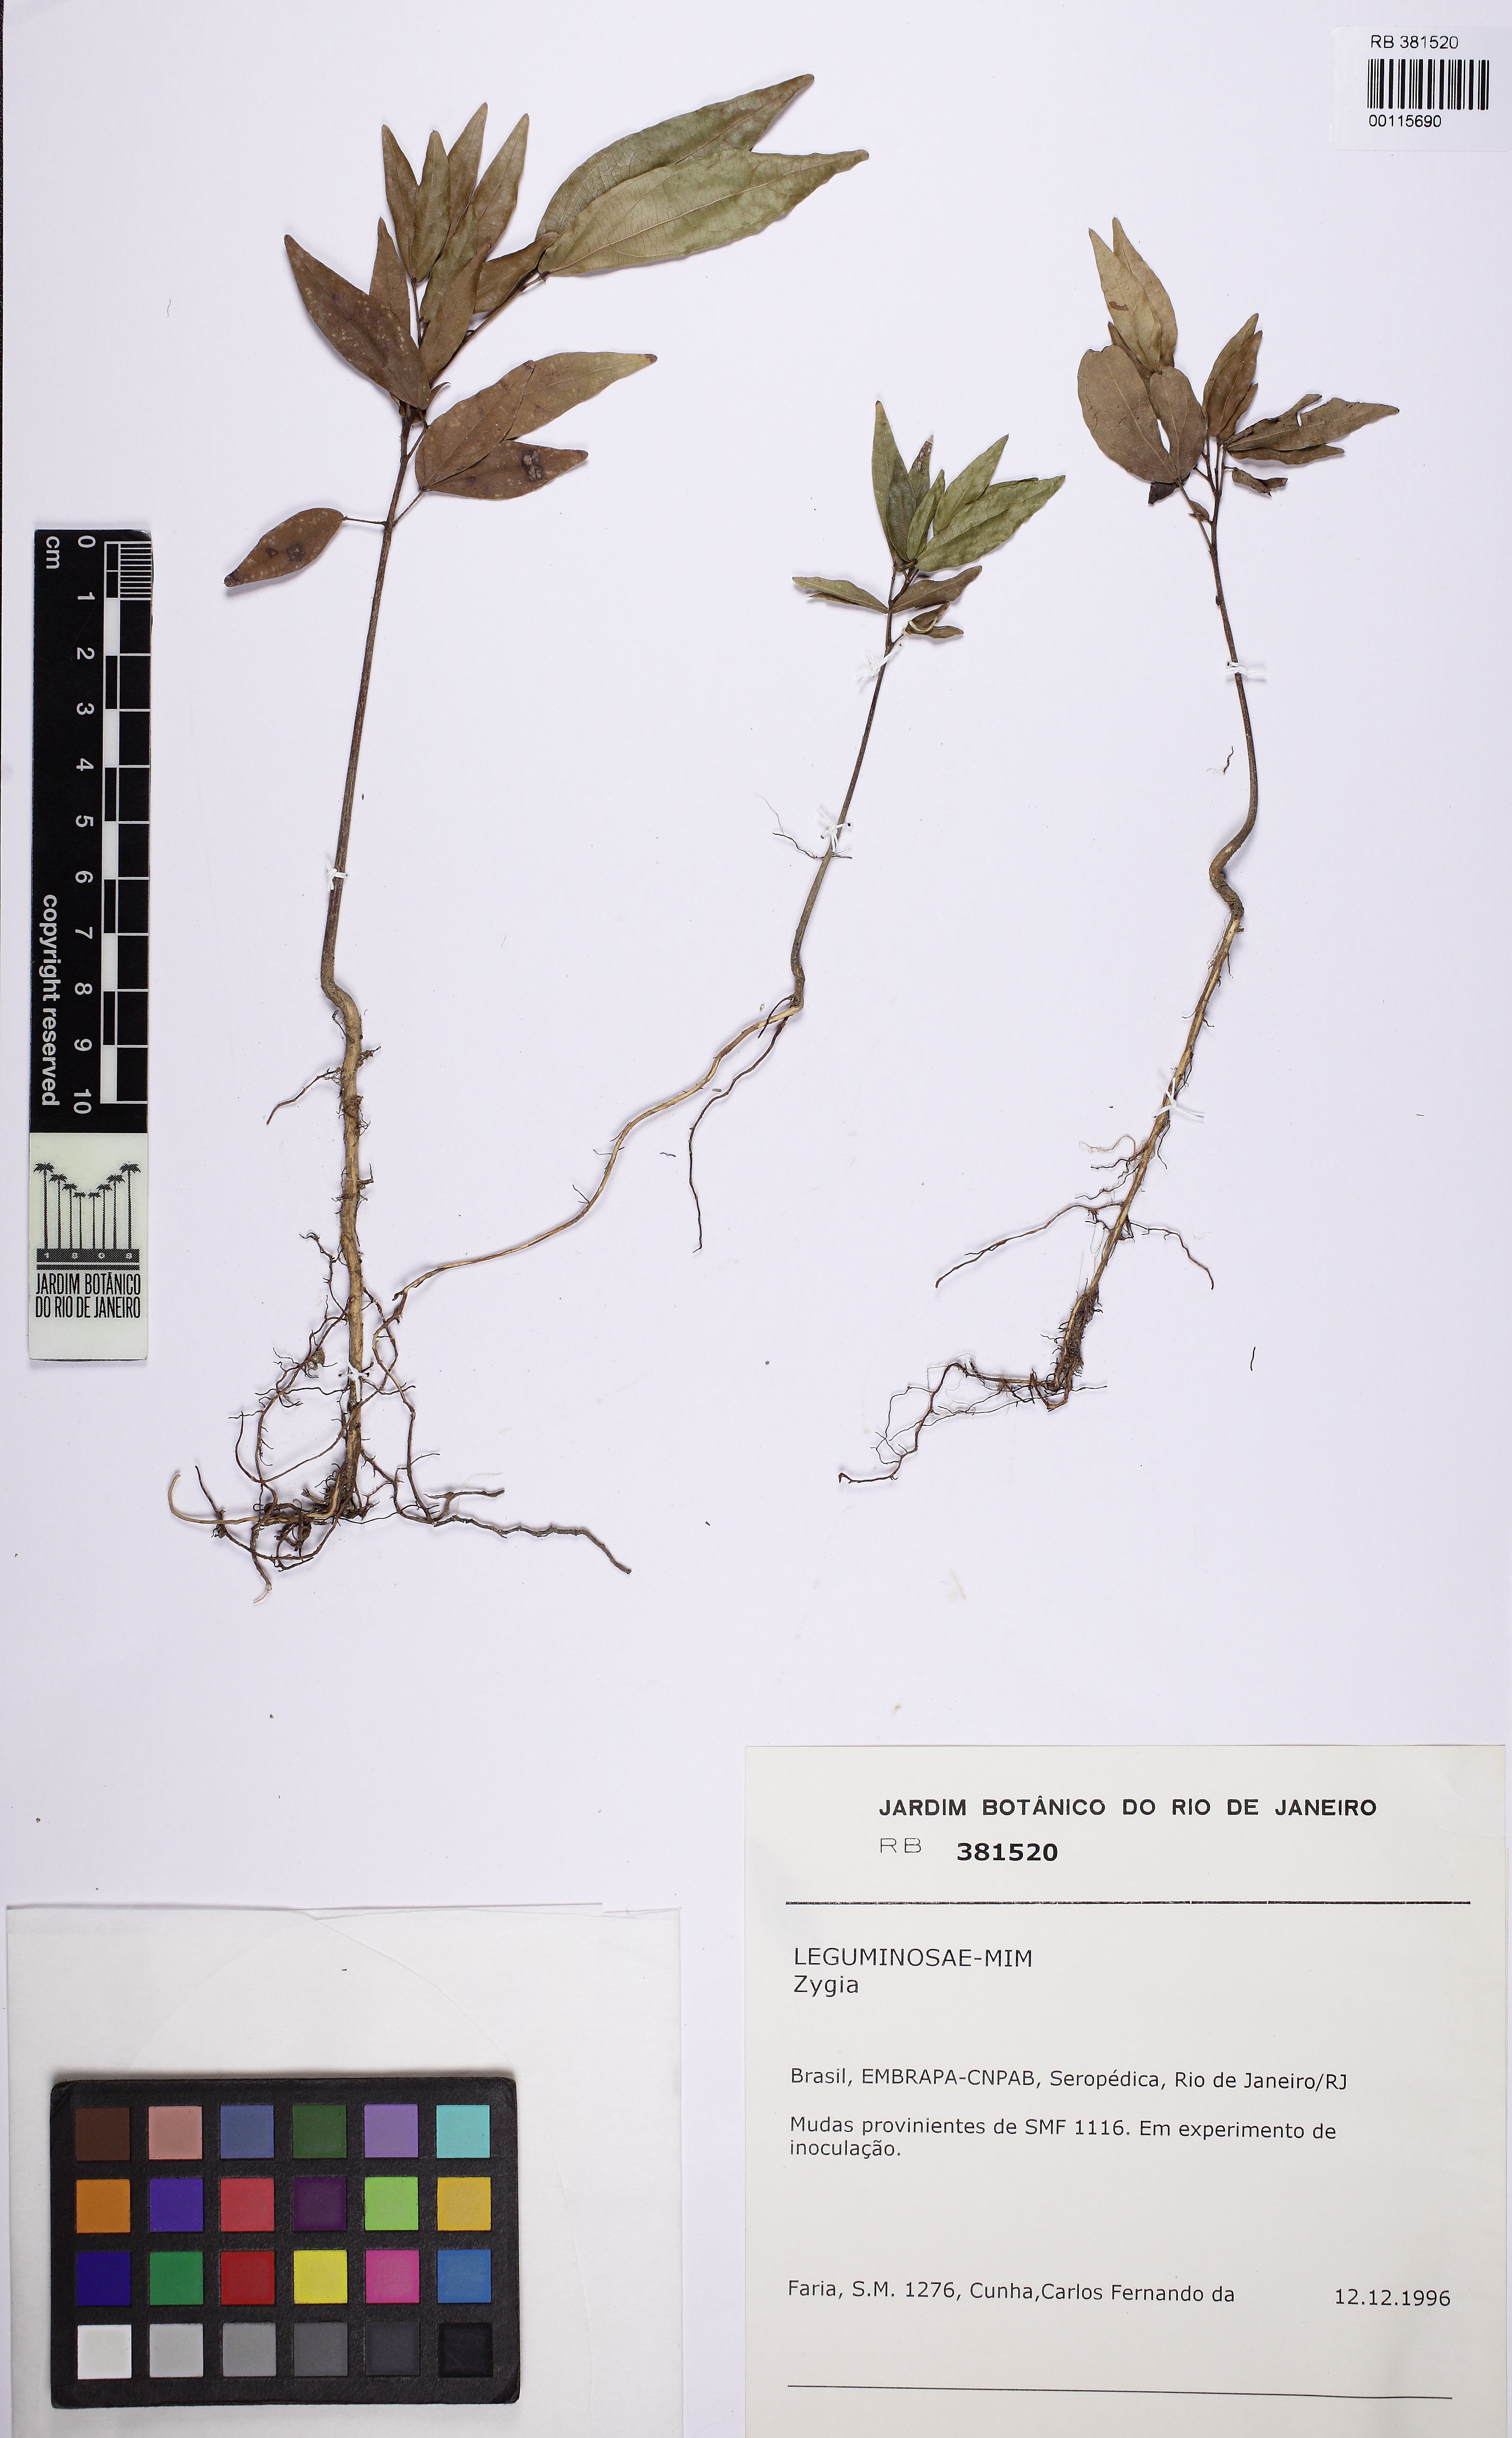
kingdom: Plantae
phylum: Tracheophyta
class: Magnoliopsida
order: Fabales
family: Fabaceae
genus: Zygia
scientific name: Zygia
